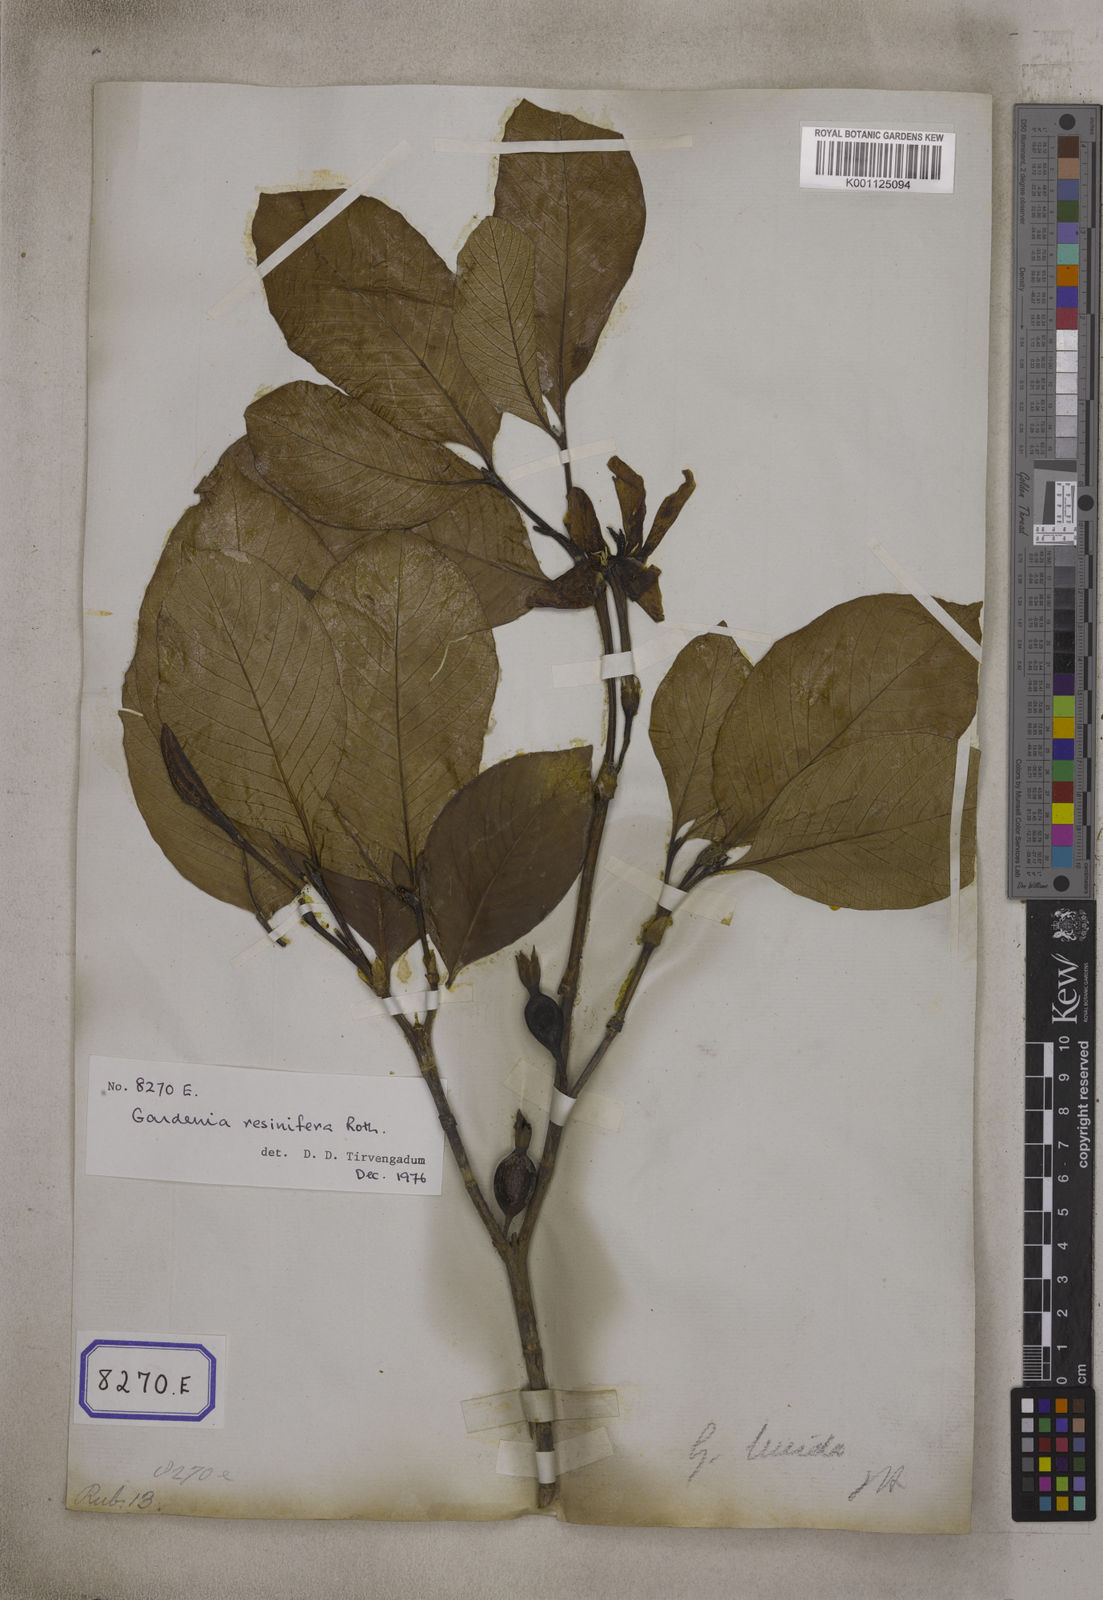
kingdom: Plantae
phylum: Tracheophyta
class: Magnoliopsida
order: Gentianales
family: Rubiaceae
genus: Gardenia
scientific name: Gardenia resinifera
